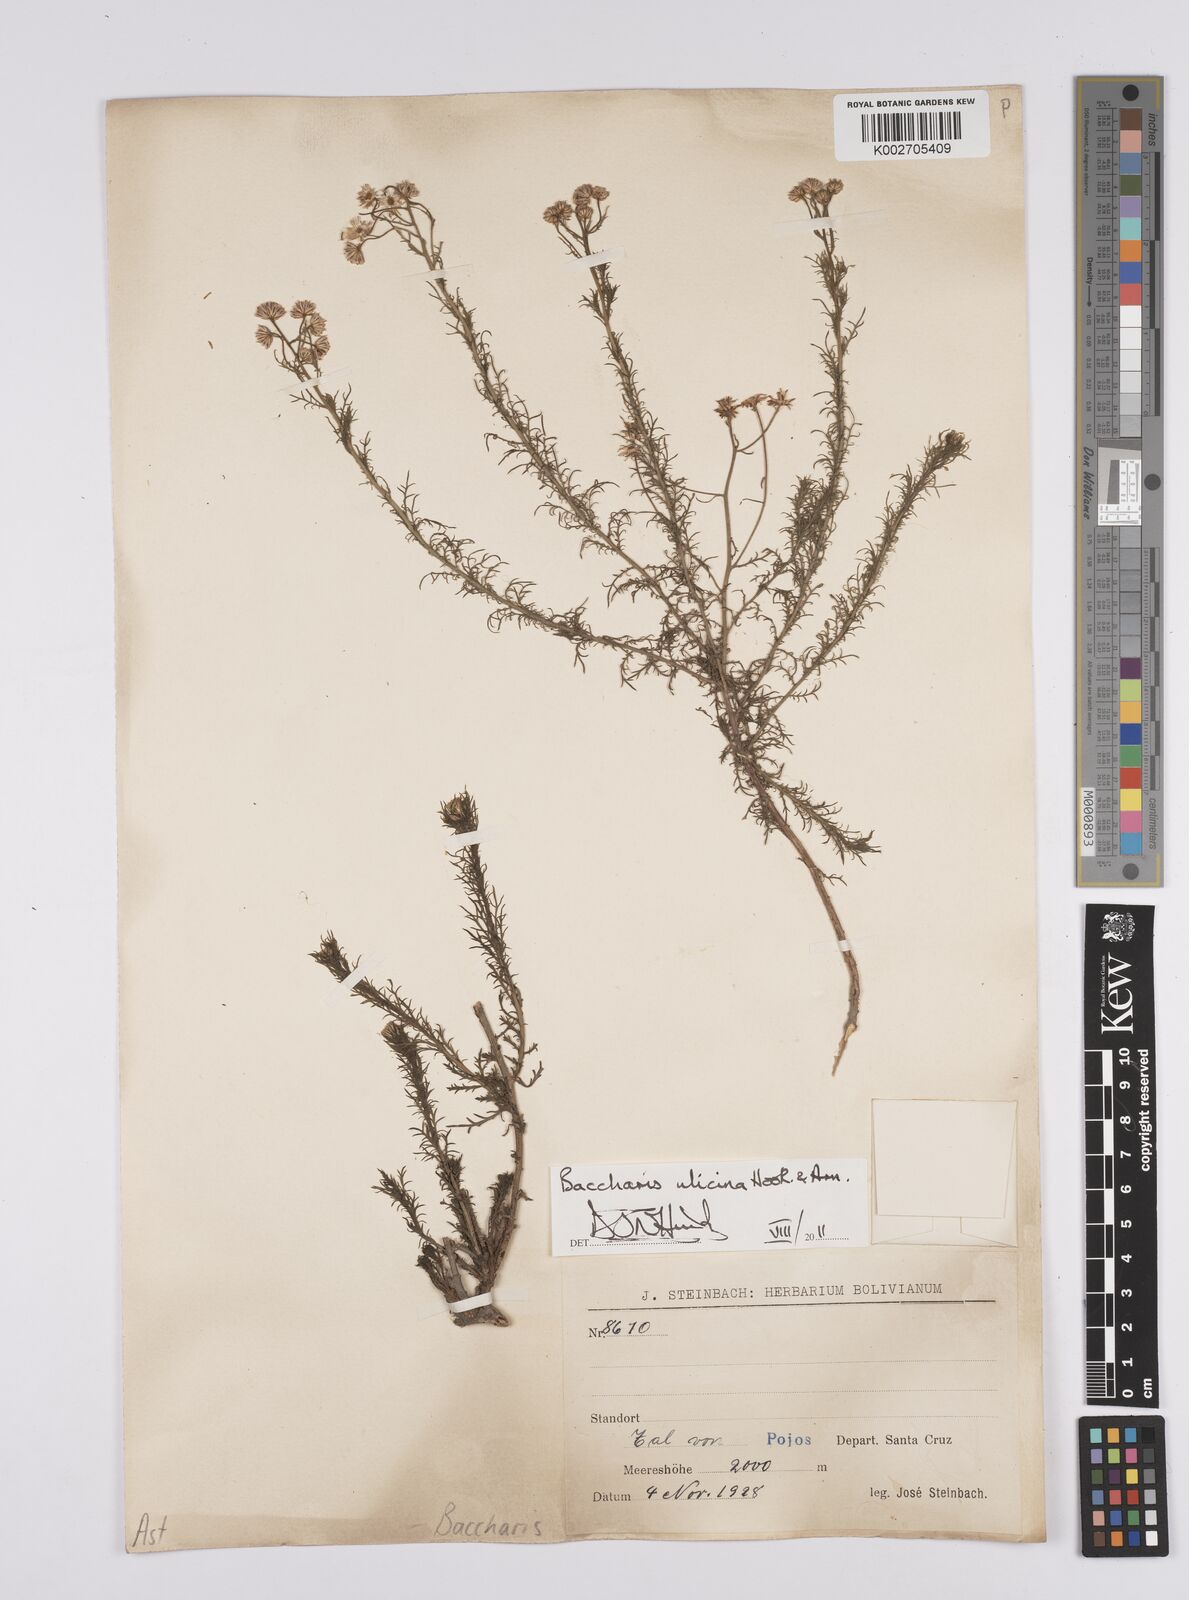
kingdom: Plantae
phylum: Tracheophyta
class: Magnoliopsida
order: Asterales
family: Asteraceae
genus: Baccharis
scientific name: Baccharis ulicina
